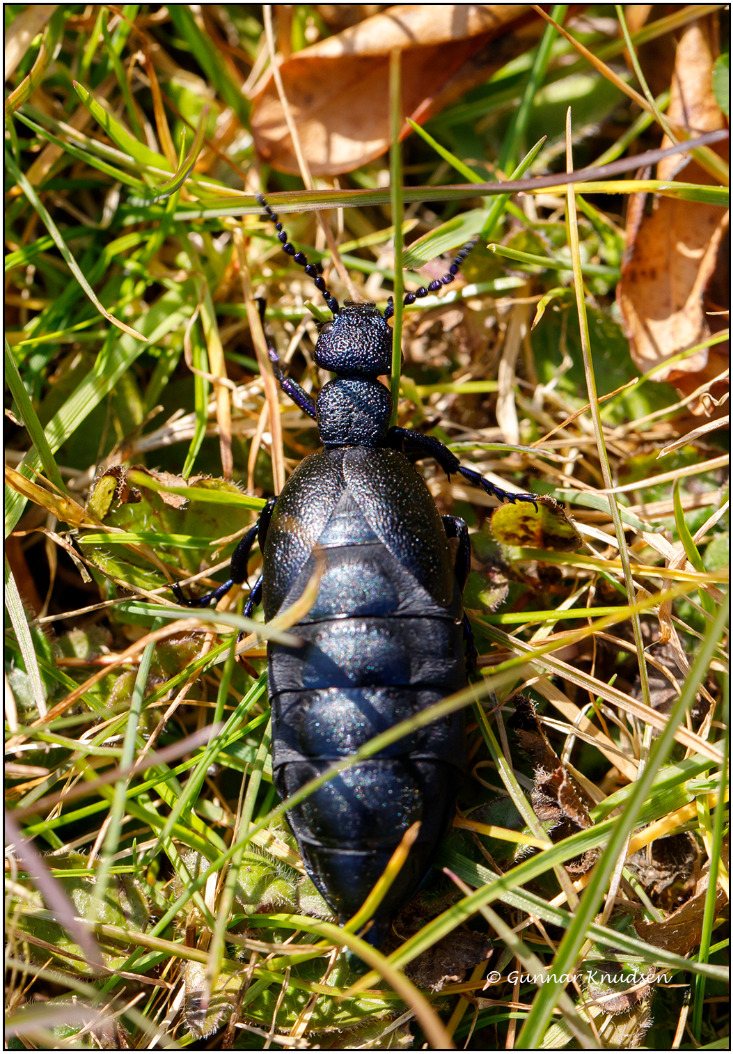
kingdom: Animalia
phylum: Arthropoda
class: Insecta
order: Coleoptera
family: Meloidae
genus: Meloe
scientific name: Meloe proscarabaeus
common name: Sort oliebille
